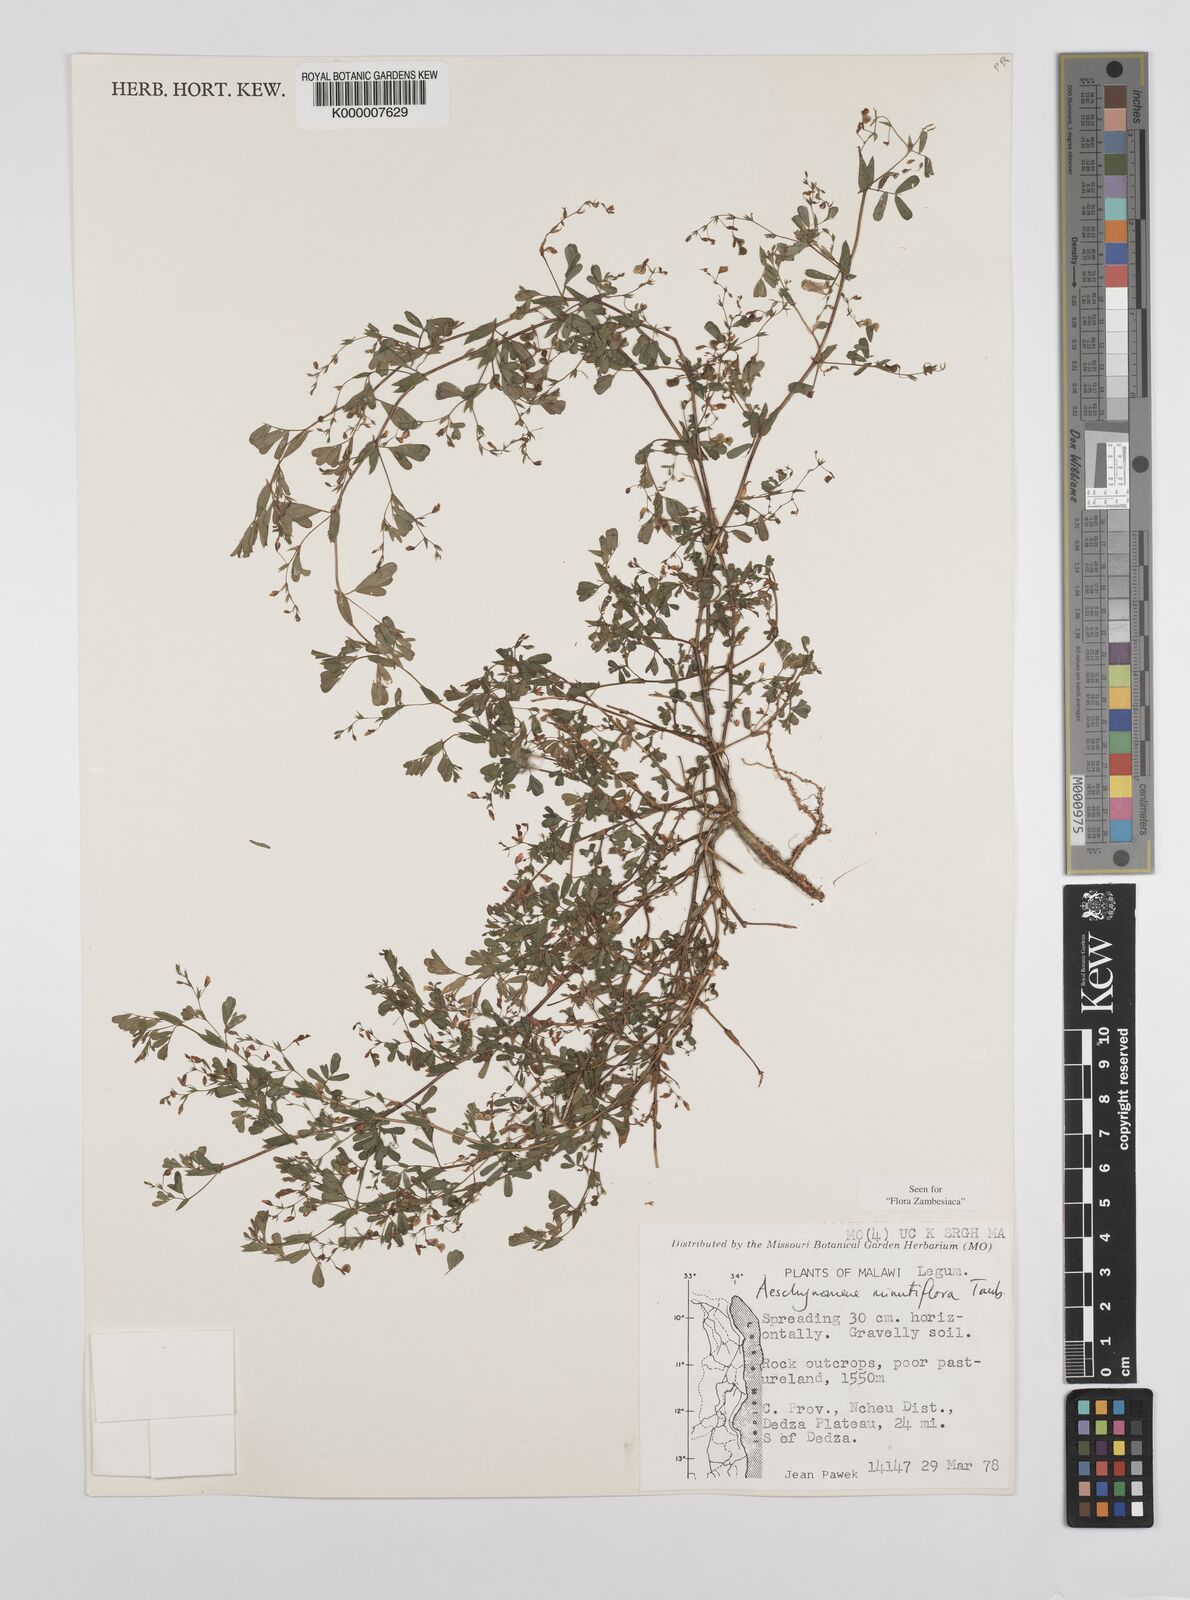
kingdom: Plantae
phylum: Tracheophyta
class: Magnoliopsida
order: Fabales
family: Fabaceae
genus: Aeschynomene
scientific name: Aeschynomene minutiflora
